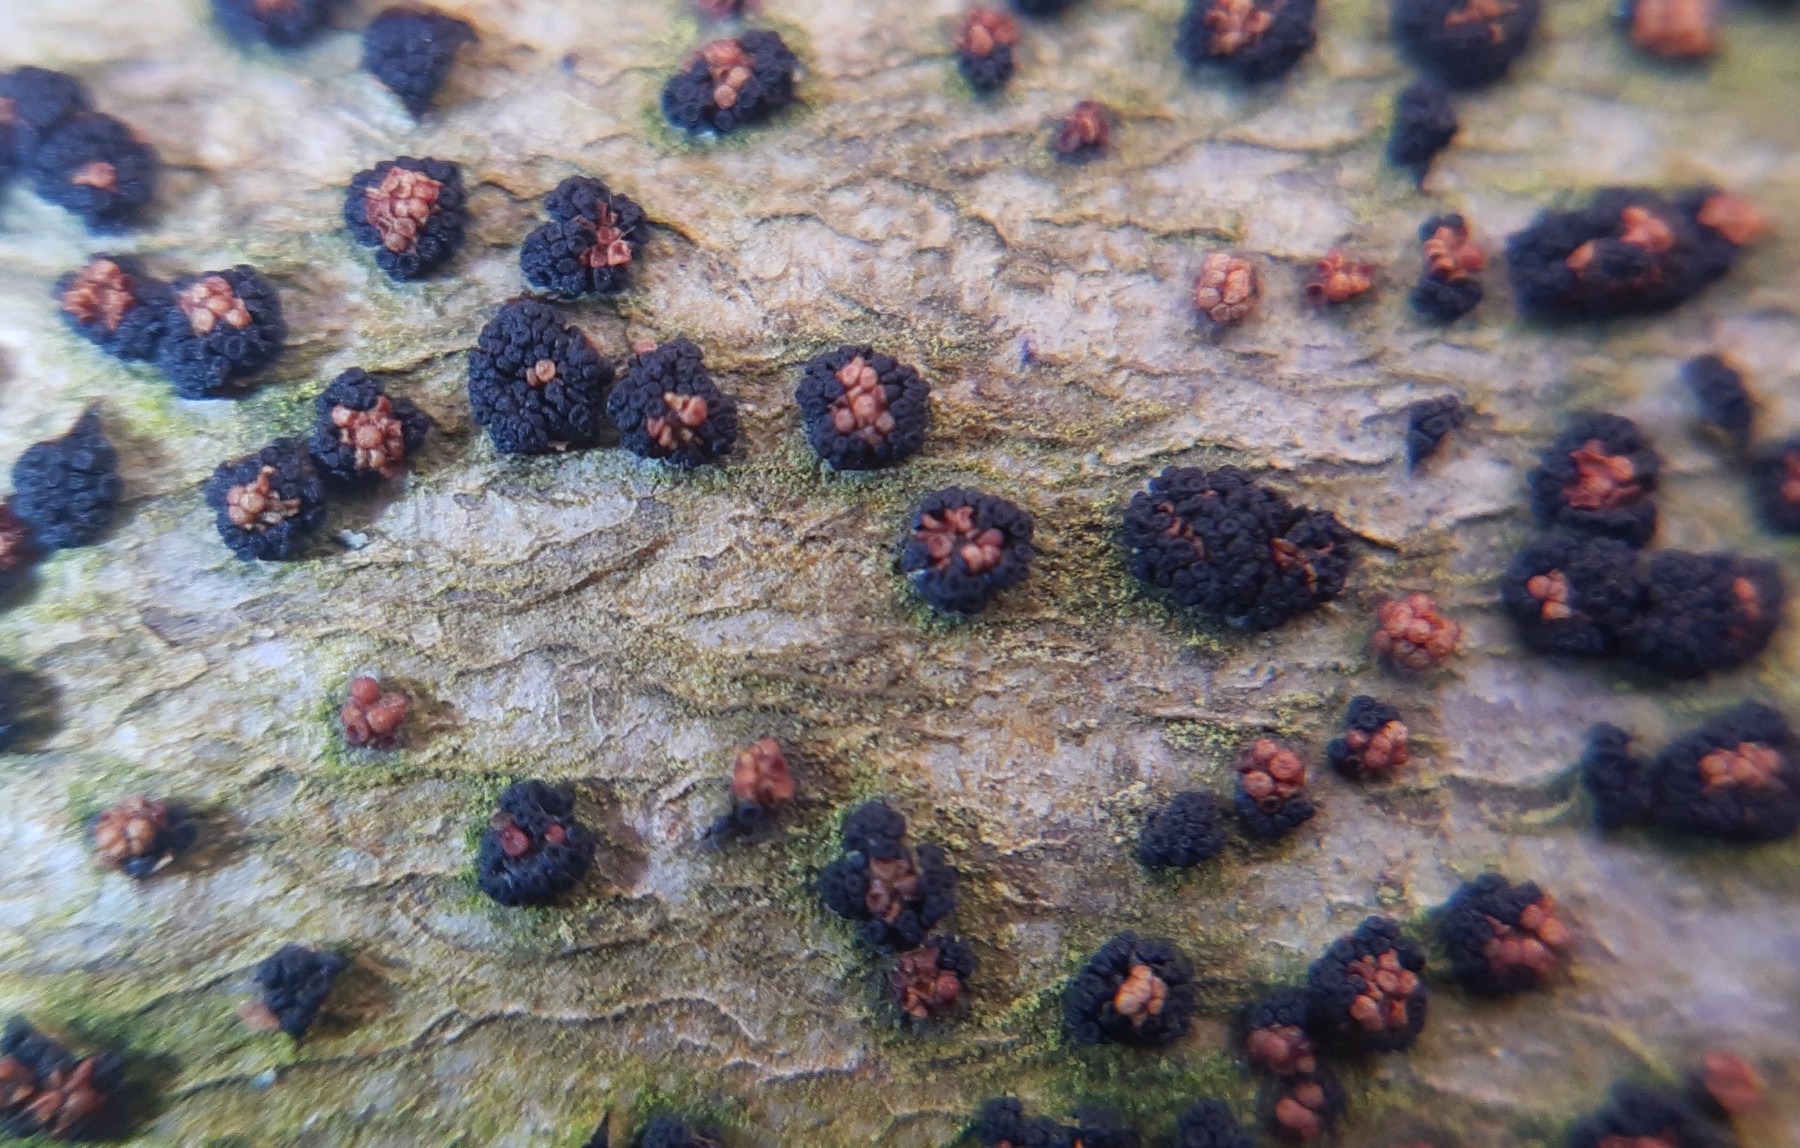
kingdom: Fungi
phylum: Ascomycota
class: Sordariomycetes
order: Hypocreales
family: Nectriaceae
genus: Nectria
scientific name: Nectria cinnabarina
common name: almindelig cinnobersvamp
